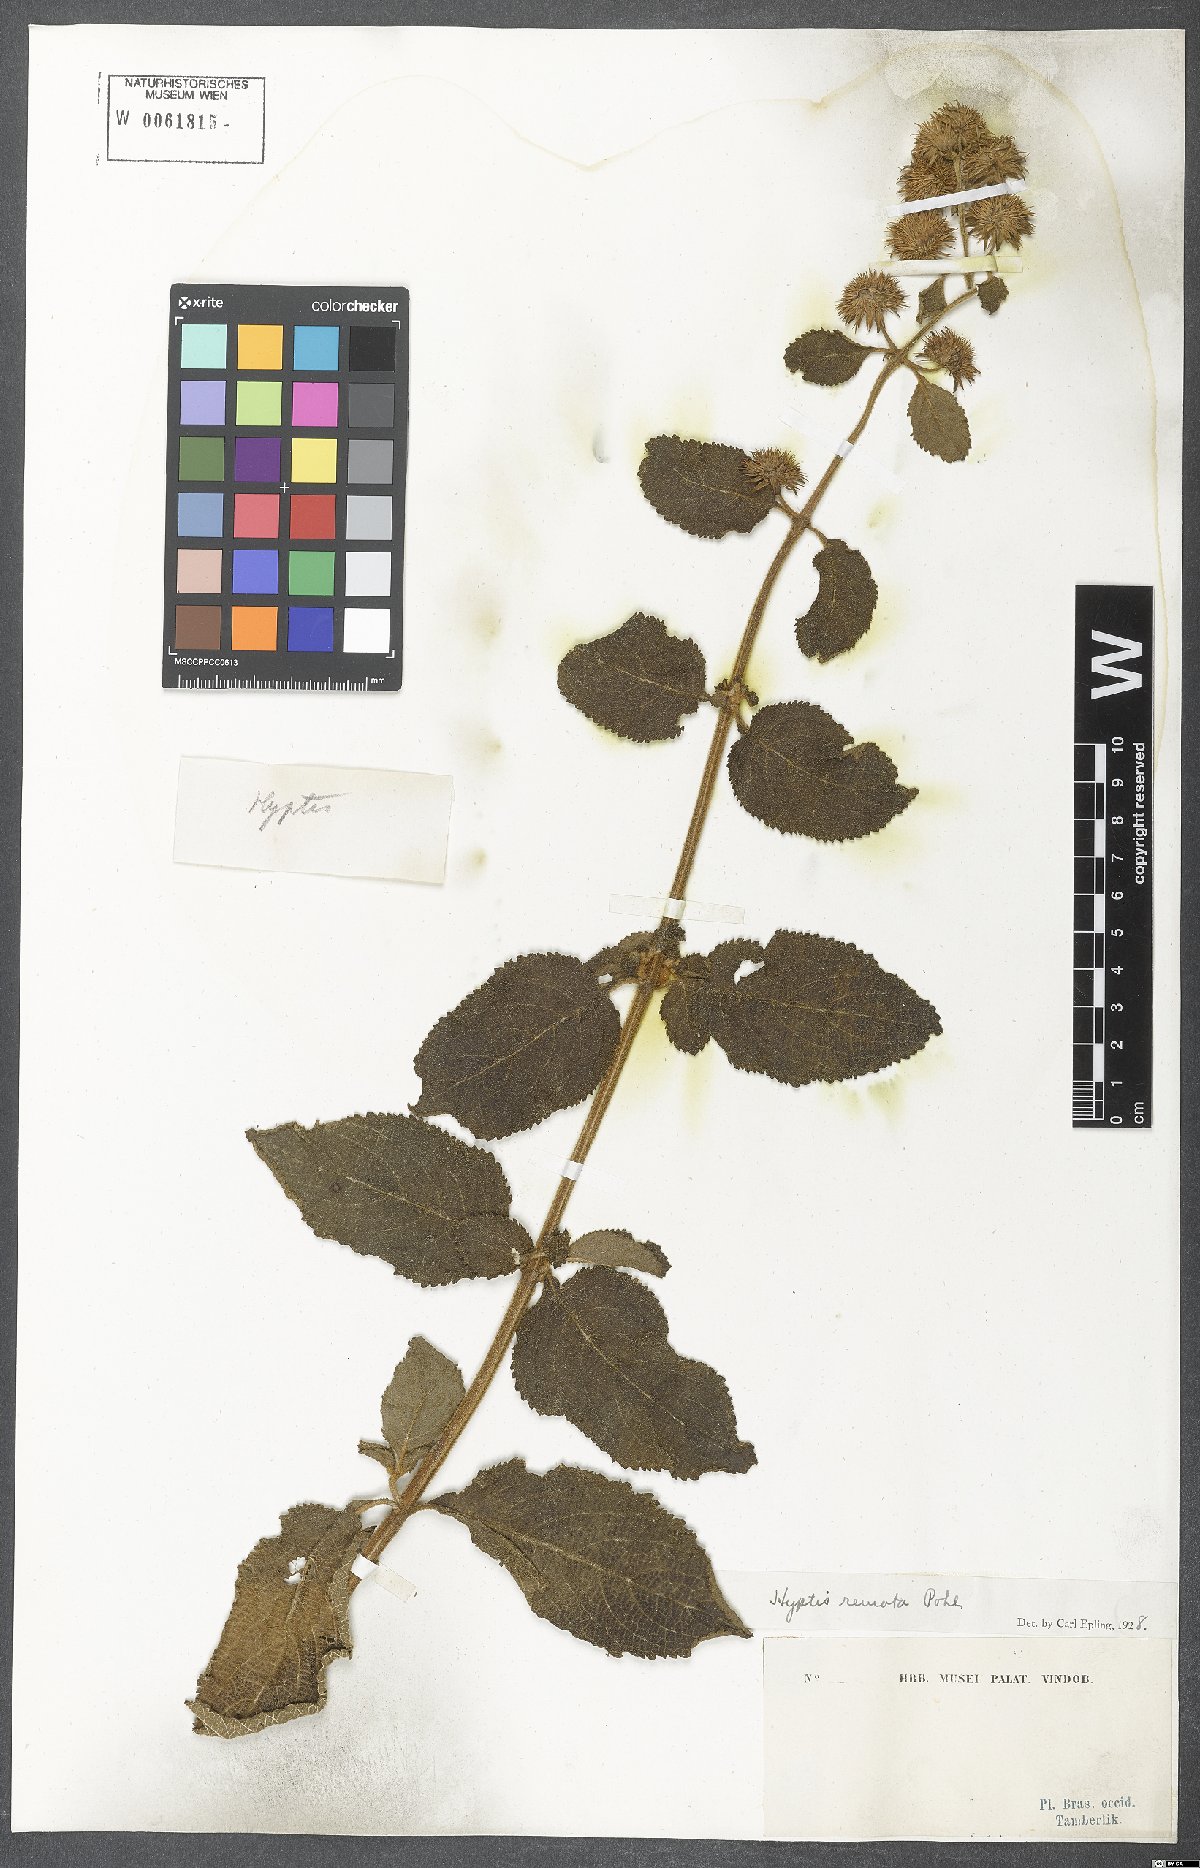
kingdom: Plantae
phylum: Tracheophyta
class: Magnoliopsida
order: Lamiales
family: Lamiaceae
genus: Hyptis
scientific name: Hyptis remota
